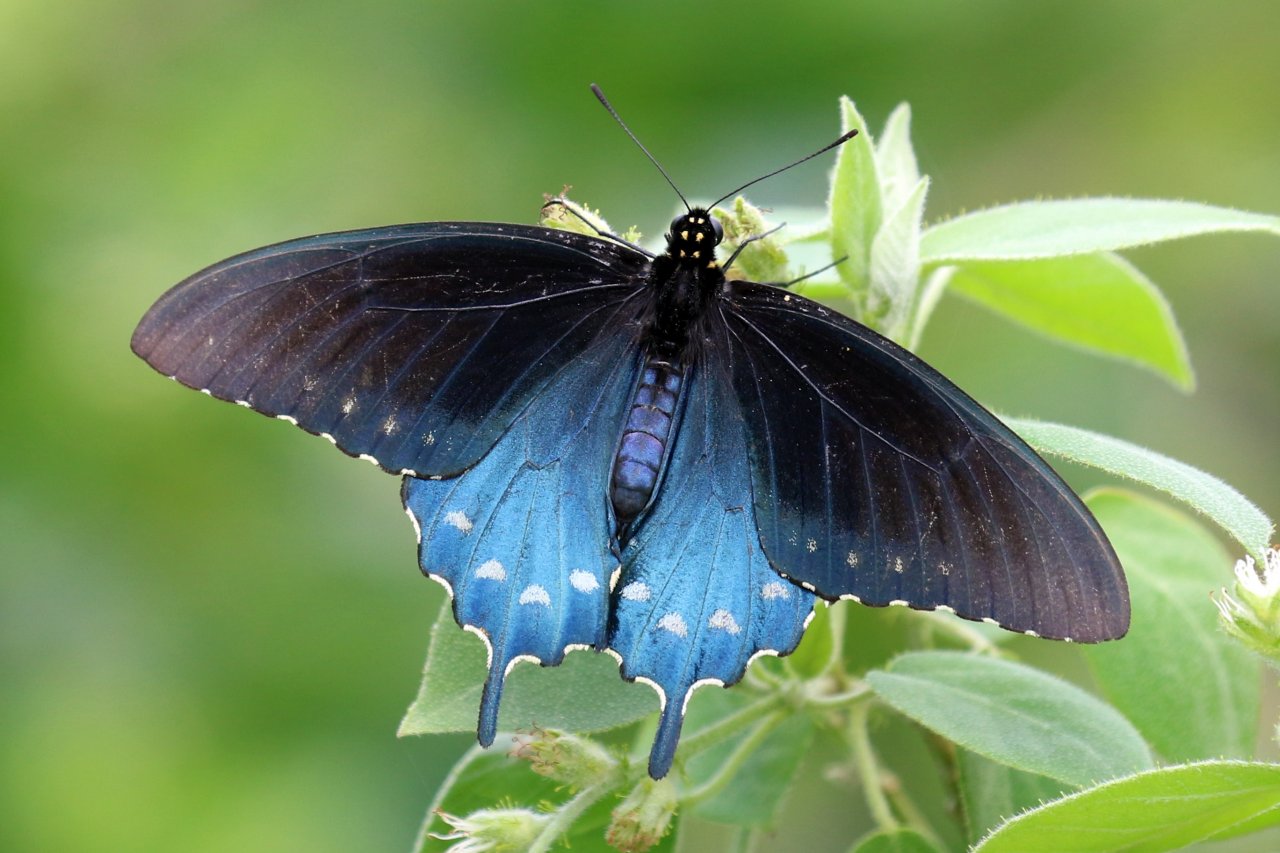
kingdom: Animalia
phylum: Arthropoda
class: Insecta
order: Lepidoptera
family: Papilionidae
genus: Battus
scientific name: Battus philenor
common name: Pipevine Swallowtail
